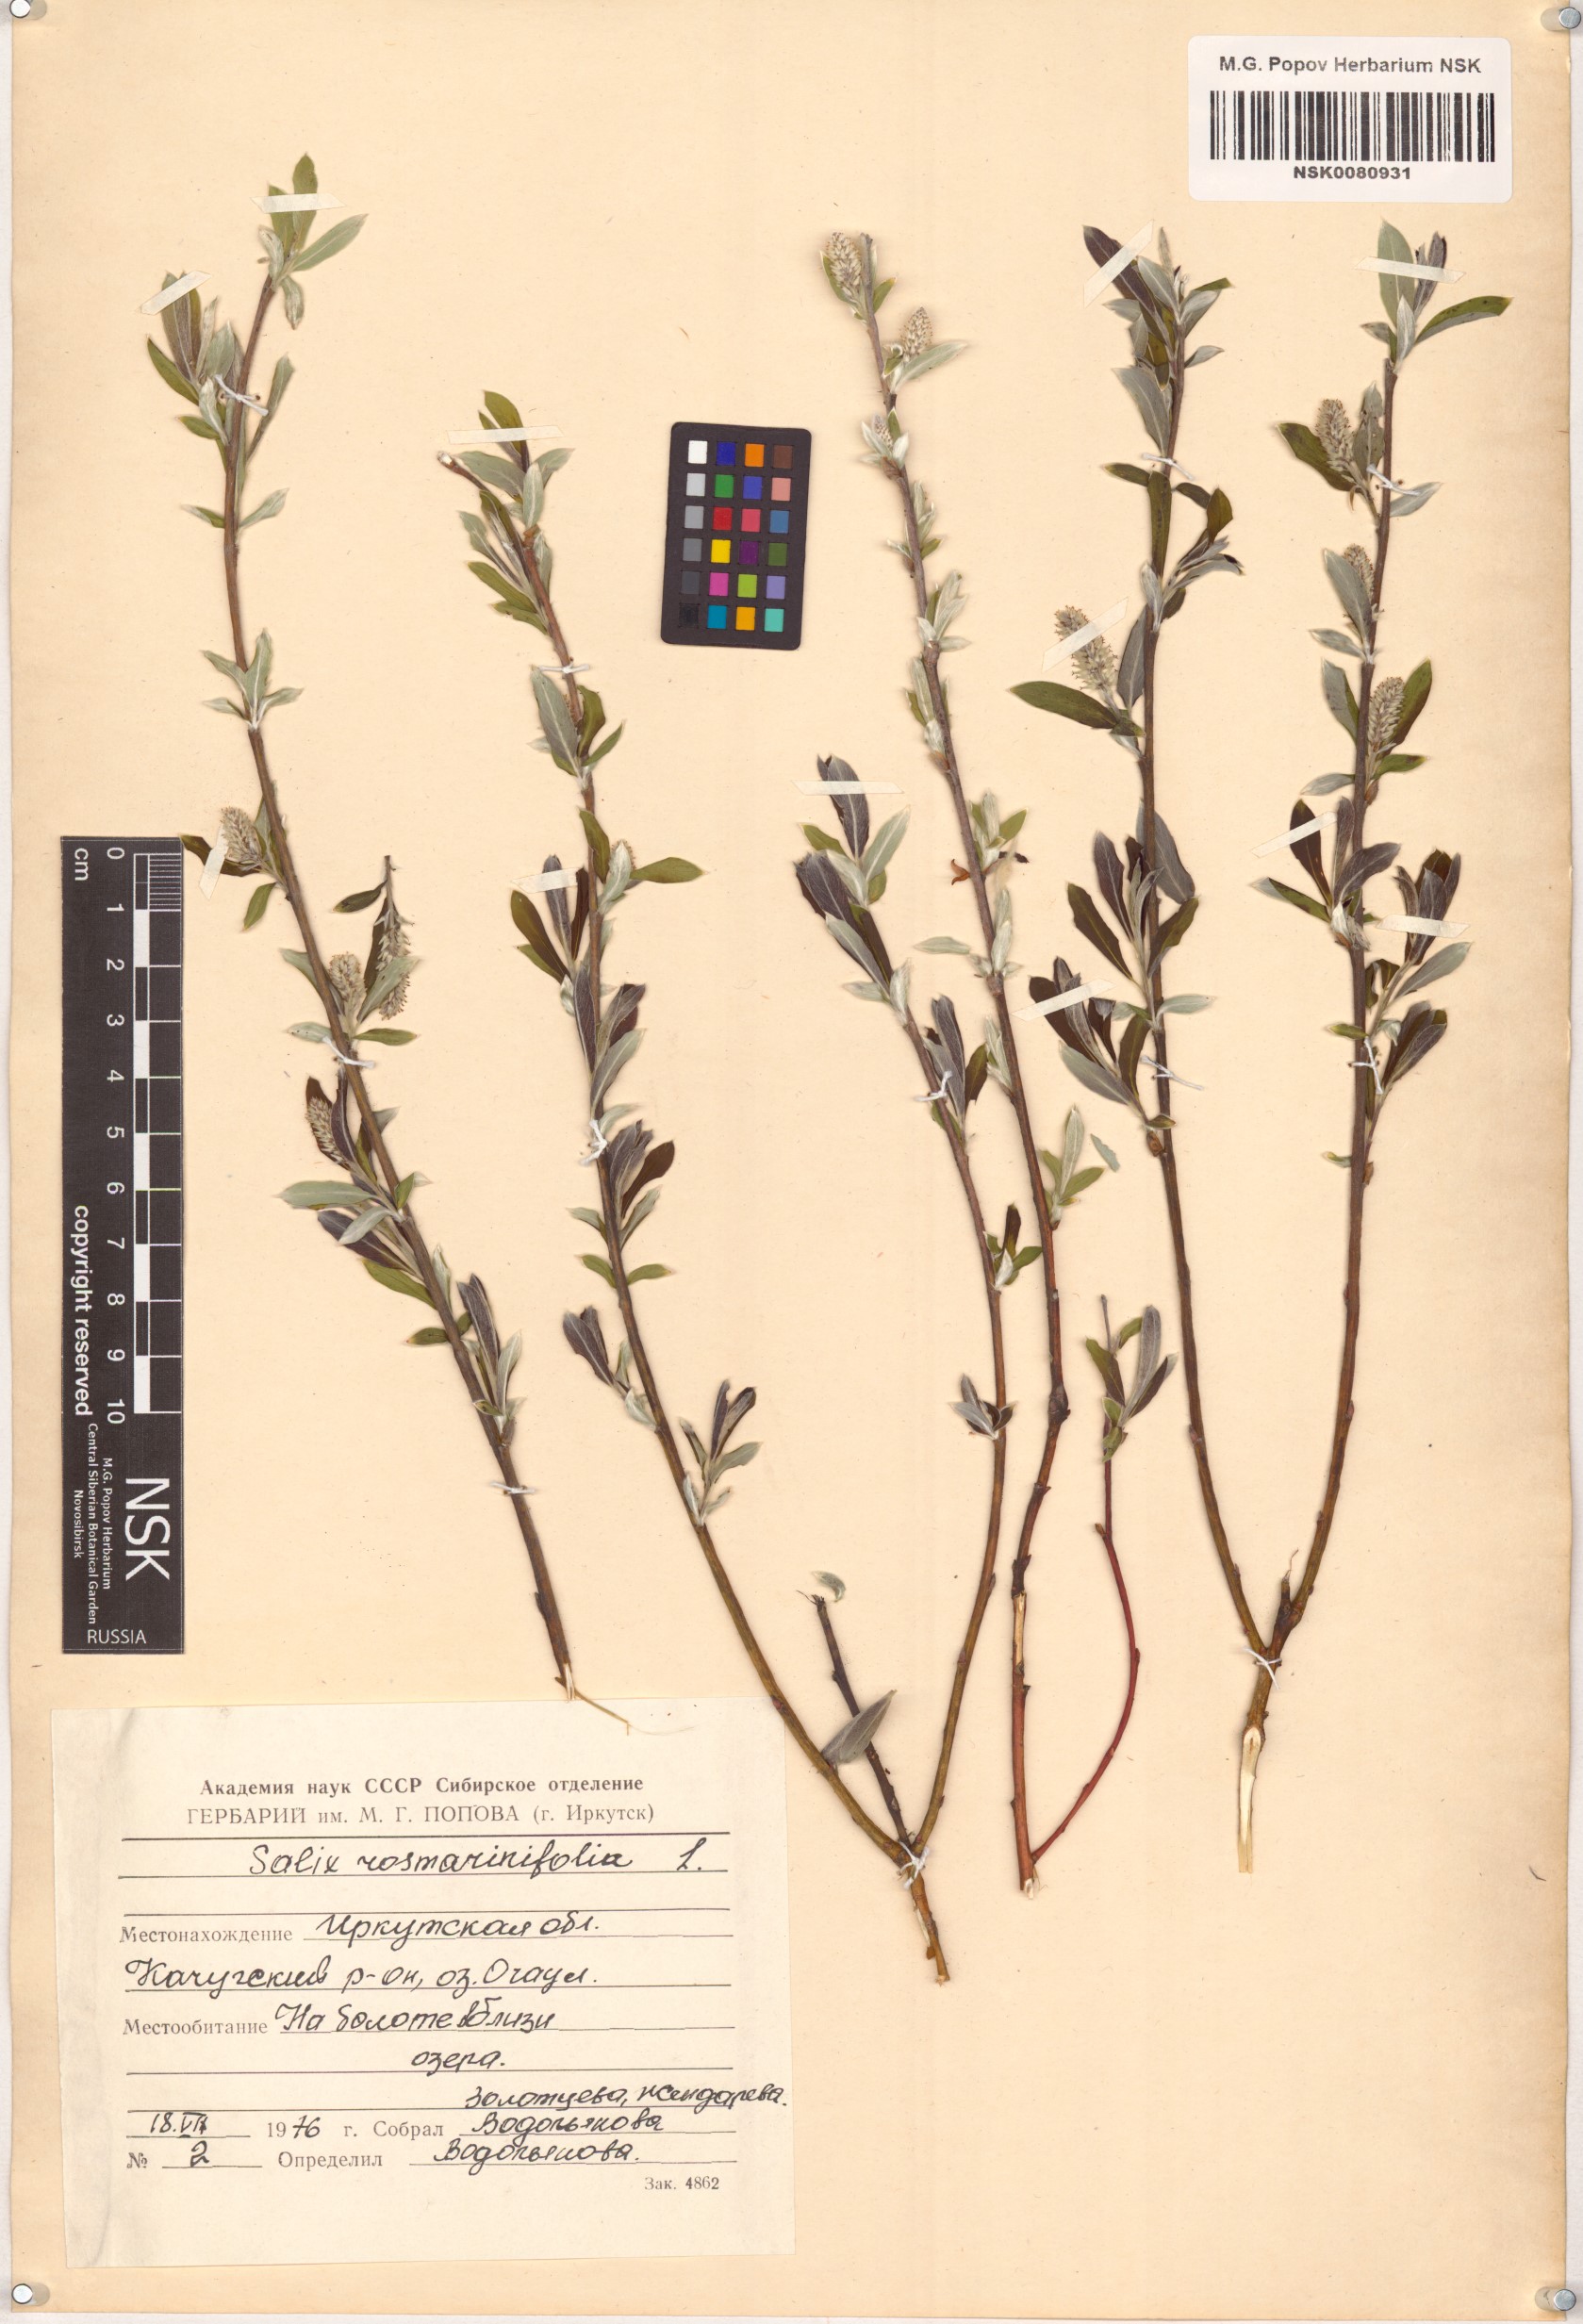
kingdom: Plantae
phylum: Tracheophyta
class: Magnoliopsida
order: Malpighiales
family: Salicaceae
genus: Salix
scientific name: Salix rosmarinifolia
